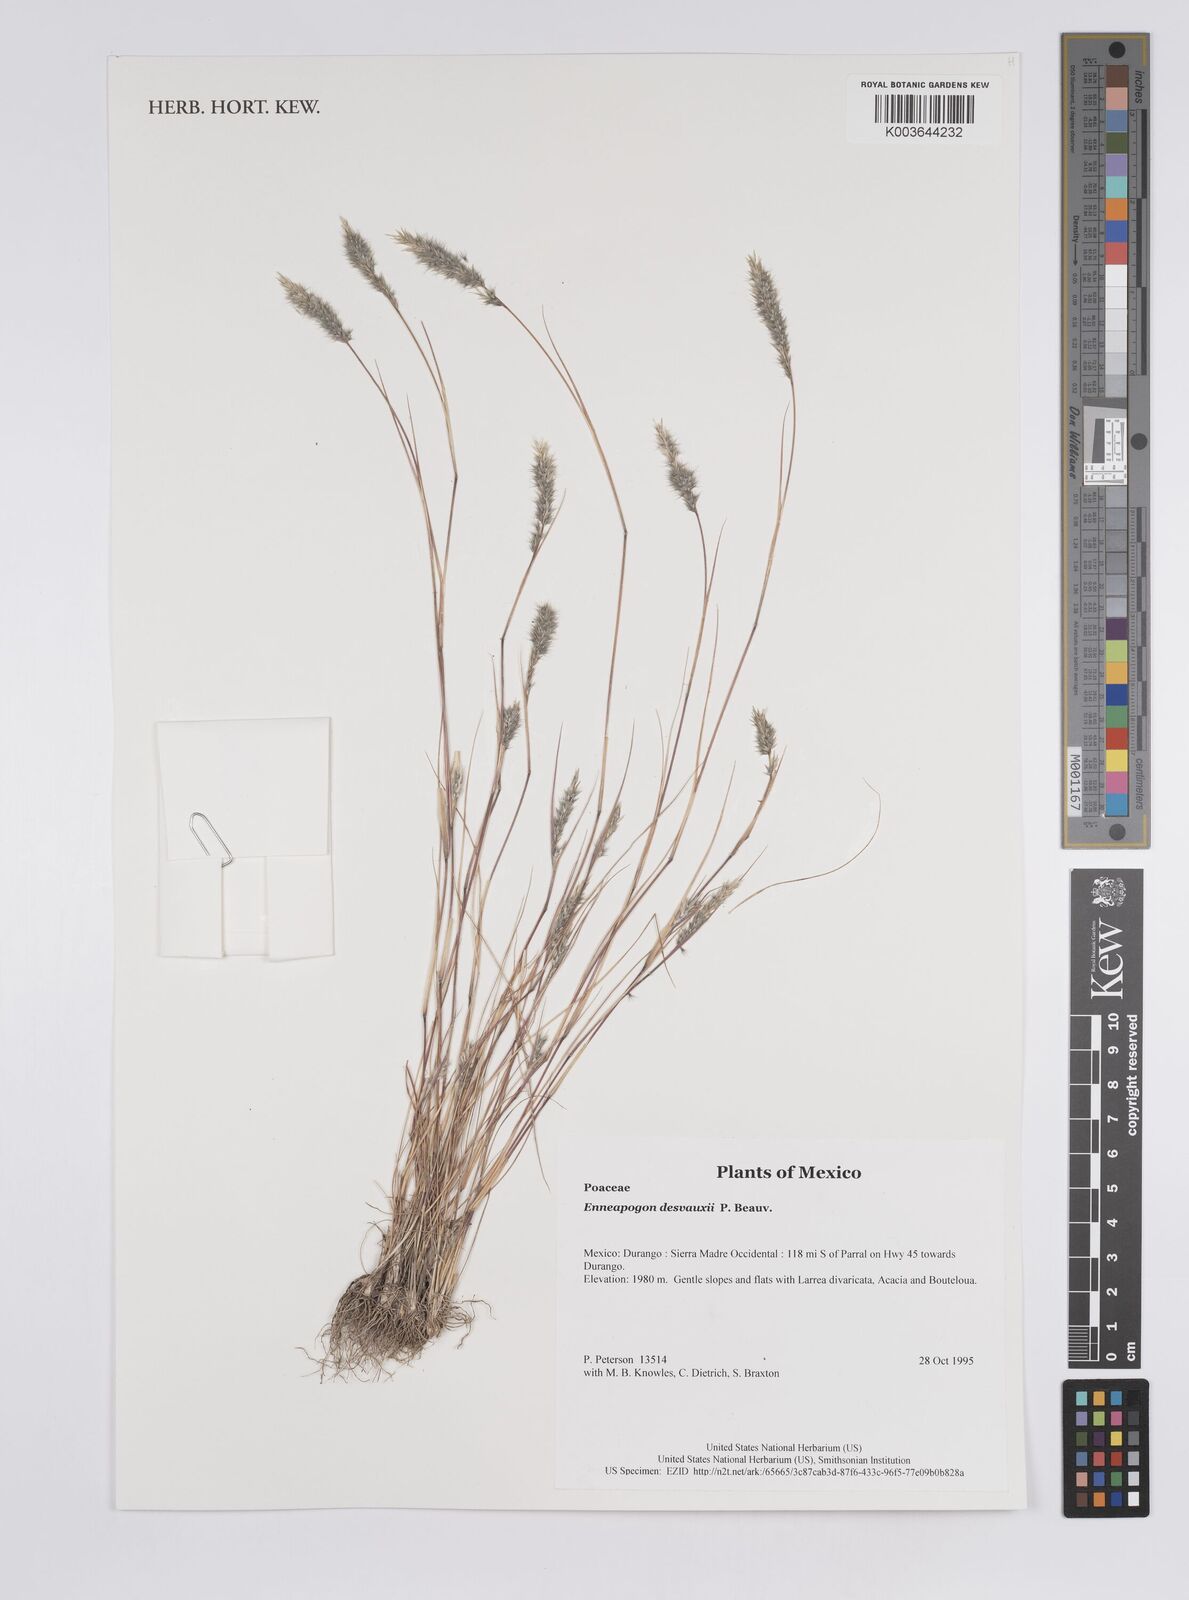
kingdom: Plantae
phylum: Tracheophyta
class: Liliopsida
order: Poales
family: Poaceae
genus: Enneapogon
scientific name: Enneapogon desvauxii
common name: Feather pappus grass
